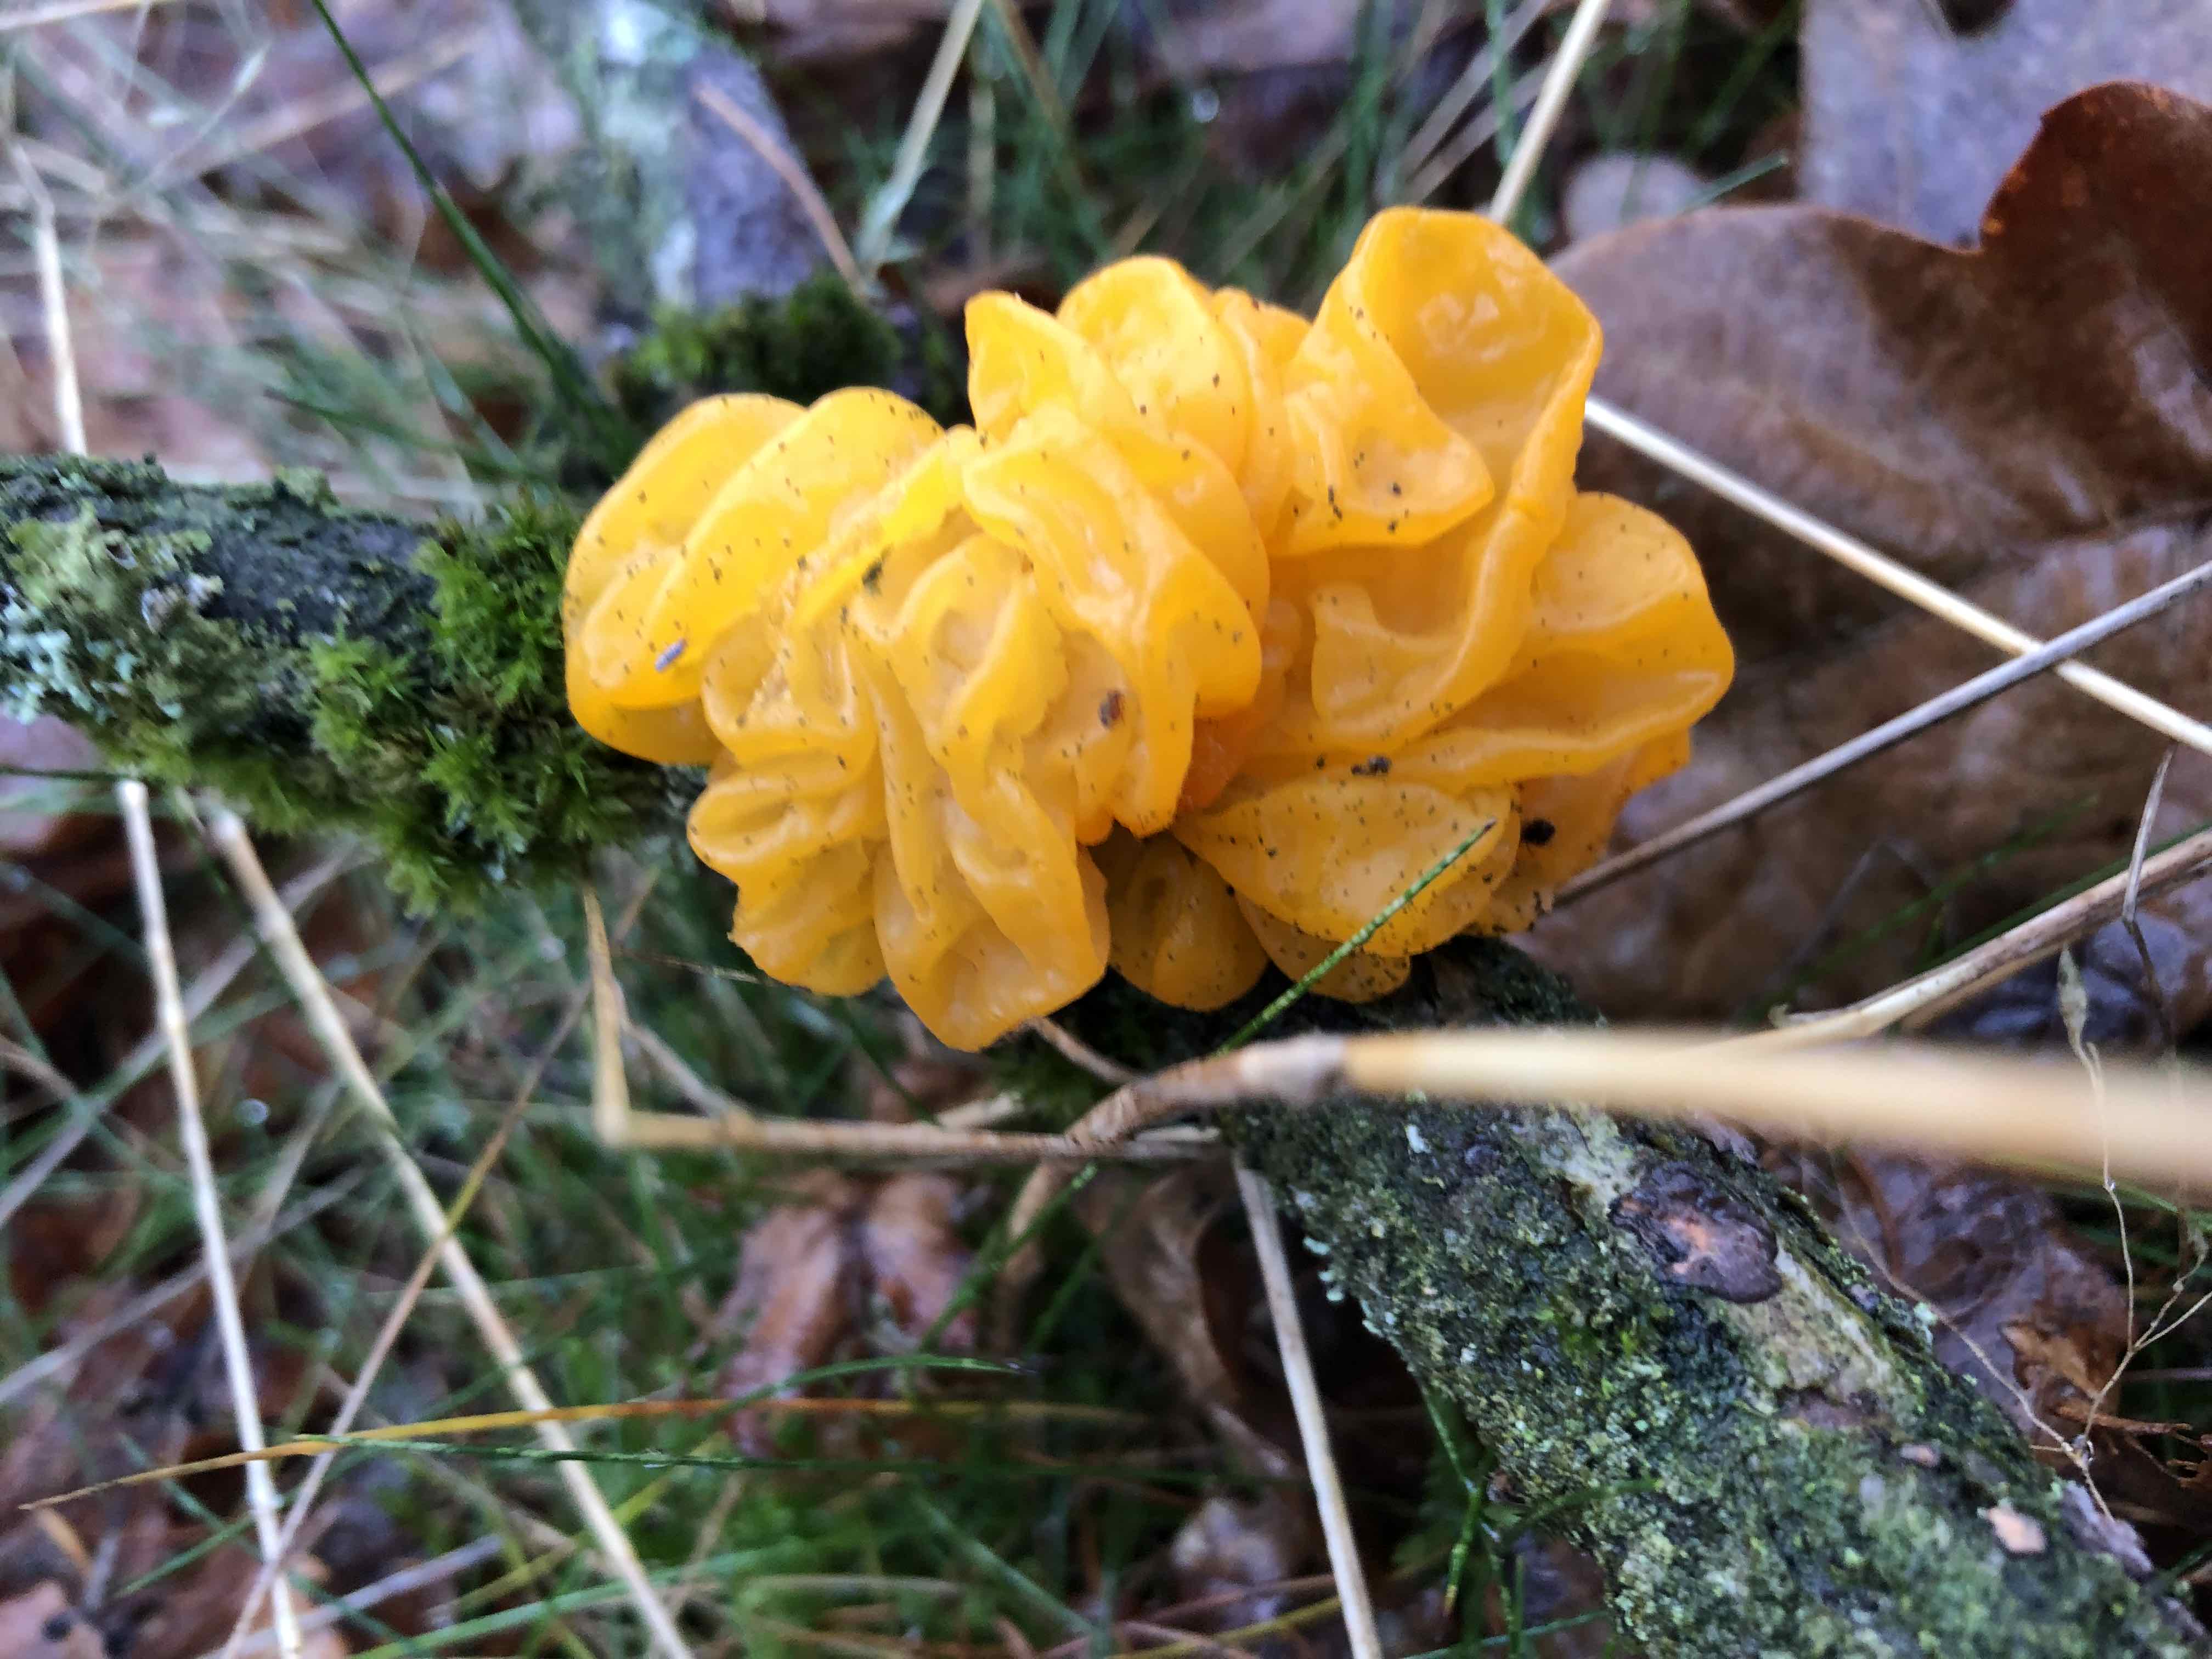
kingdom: Fungi
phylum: Basidiomycota
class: Tremellomycetes
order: Tremellales
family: Tremellaceae
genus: Tremella
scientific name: Tremella mesenterica
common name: gul bævresvamp
